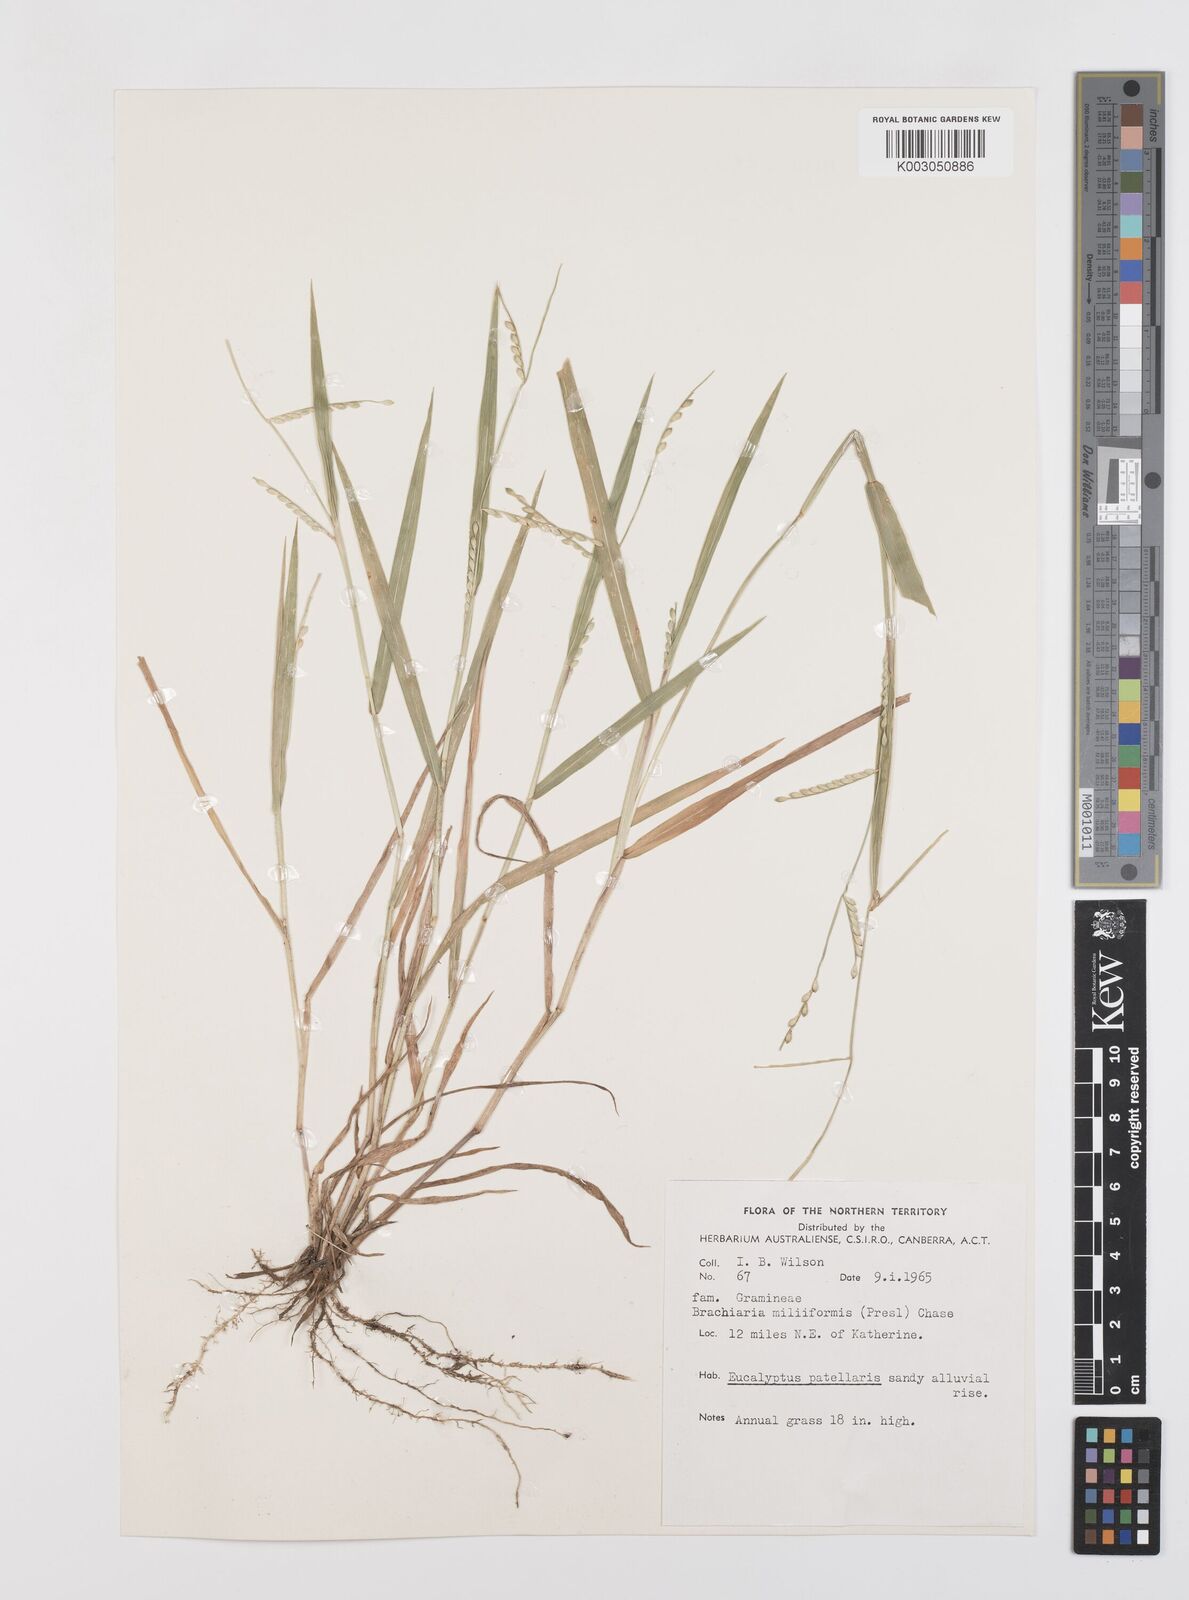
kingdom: Plantae
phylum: Tracheophyta
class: Liliopsida
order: Poales
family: Poaceae
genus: Urochloa
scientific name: Urochloa subquadripara
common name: Armgrass millet
